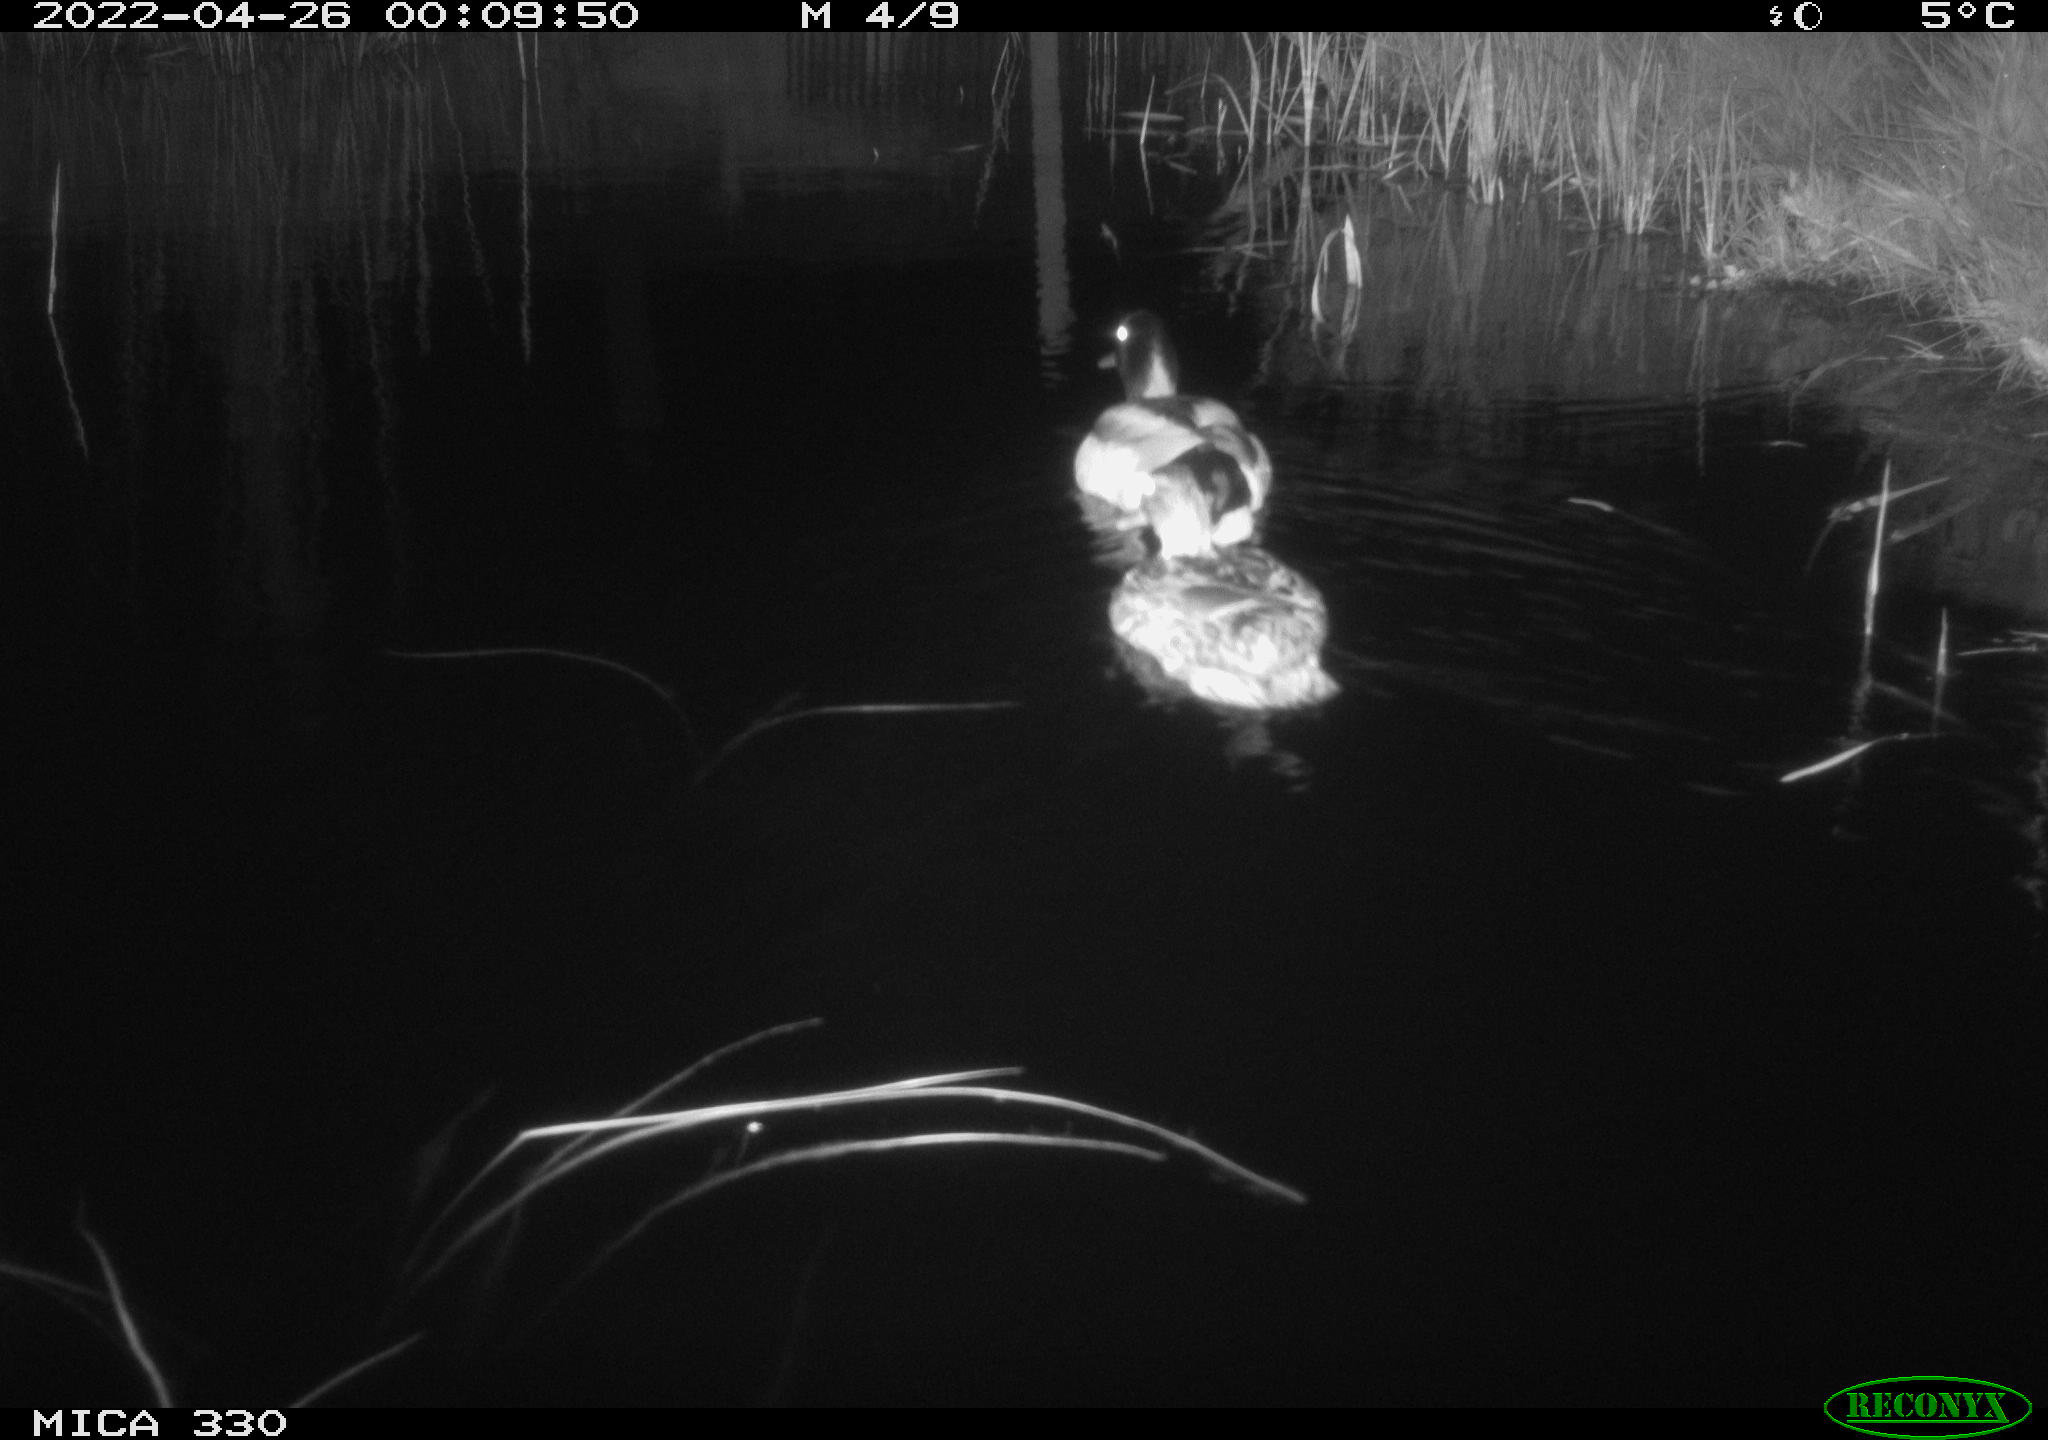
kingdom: Animalia
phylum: Chordata
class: Aves
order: Anseriformes
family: Anatidae
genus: Anas
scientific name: Anas platyrhynchos
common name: Mallard
